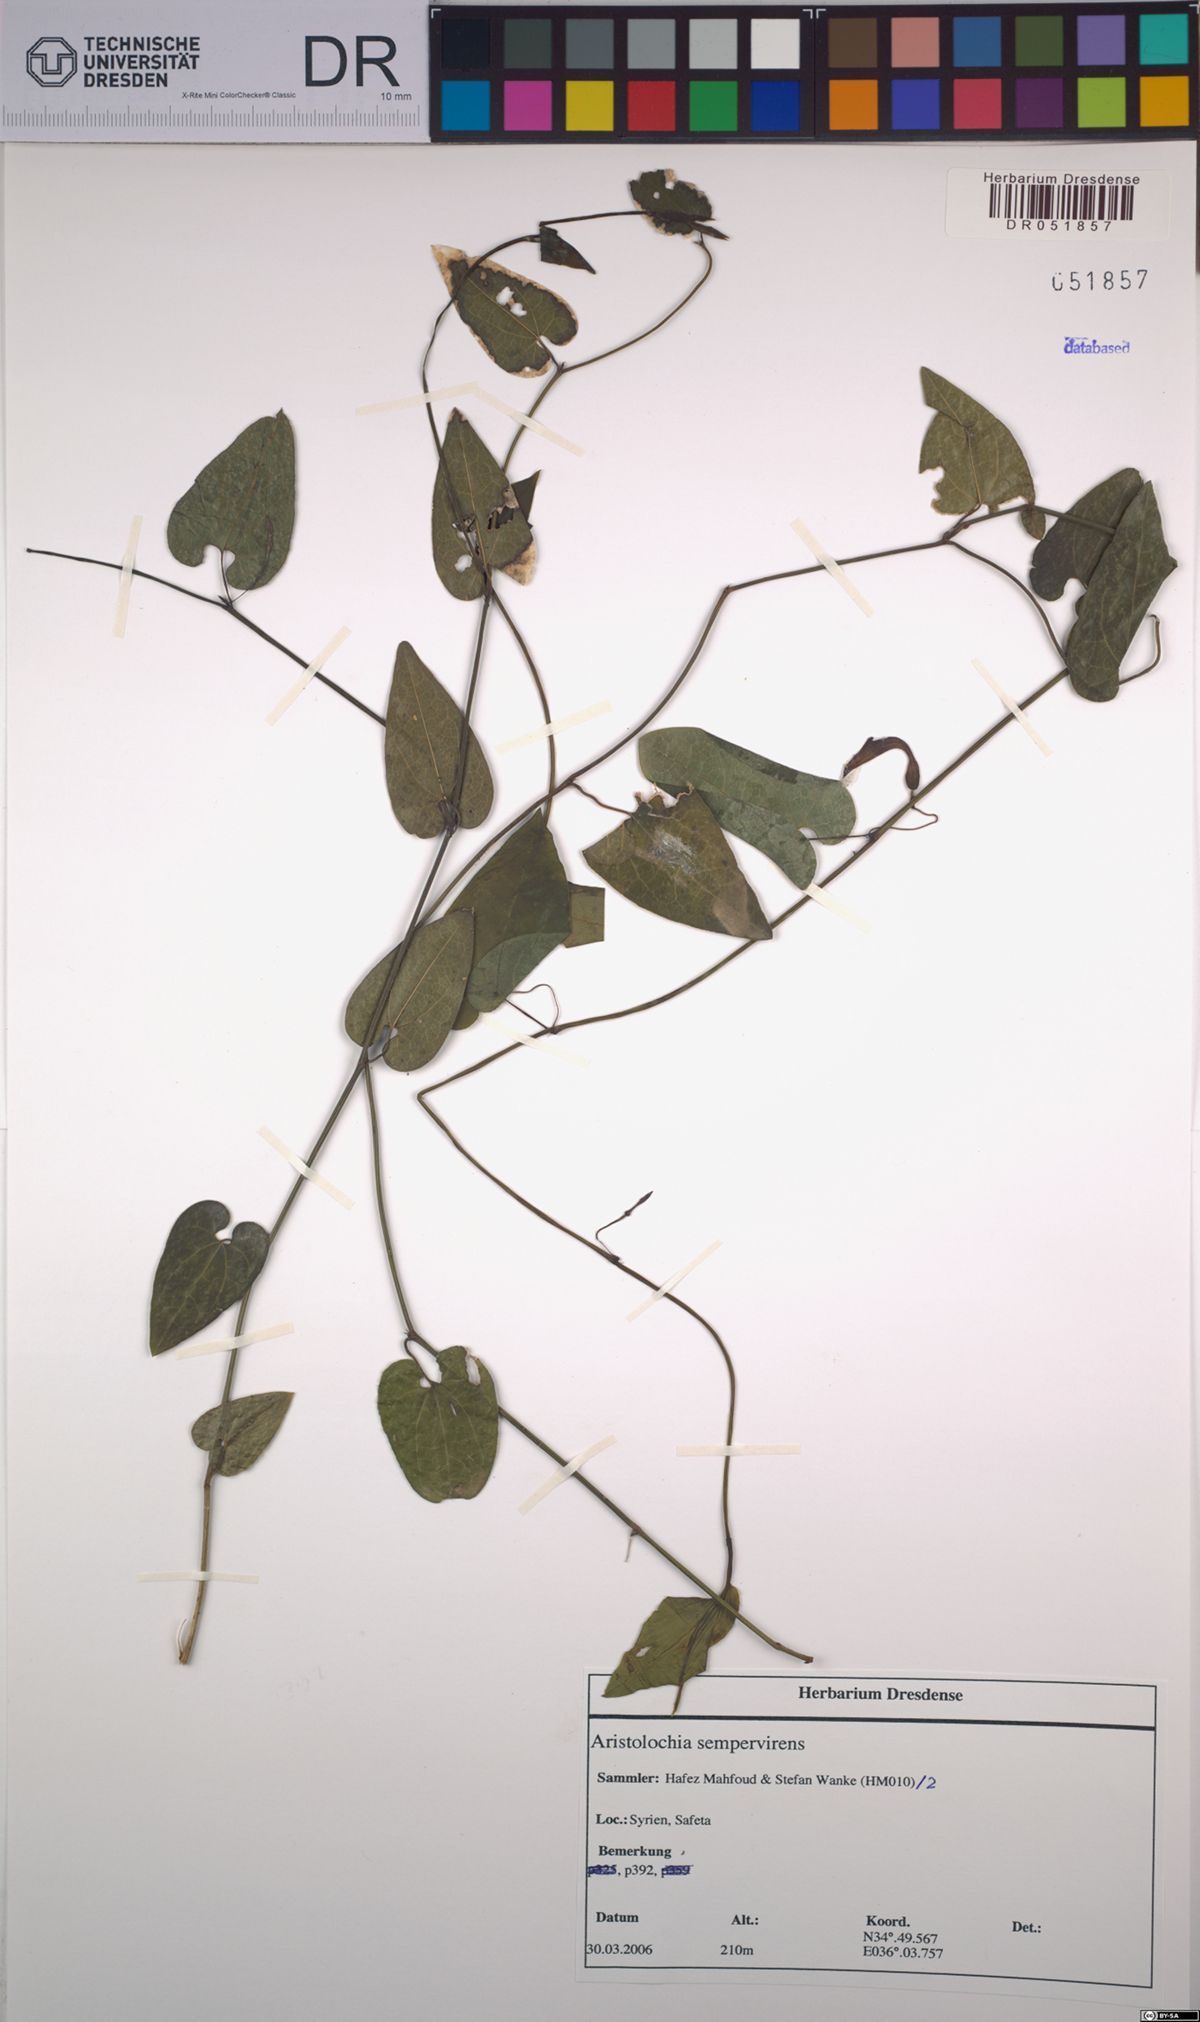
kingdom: Plantae
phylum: Tracheophyta
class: Magnoliopsida
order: Piperales
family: Aristolochiaceae
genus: Aristolochia
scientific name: Aristolochia sempervirens
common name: Long birthwort
